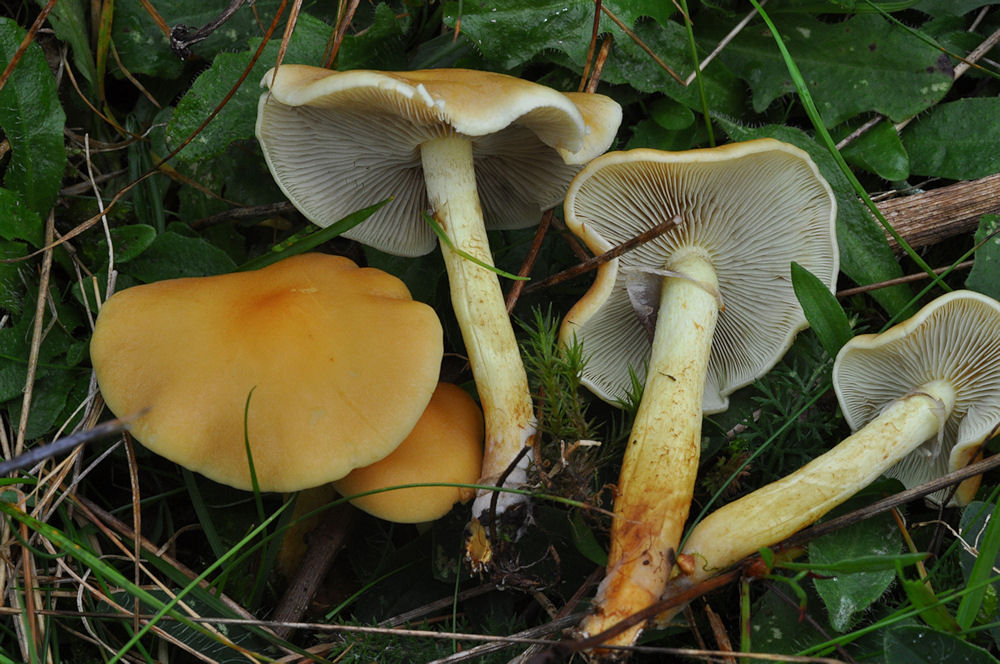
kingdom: Fungi
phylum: Basidiomycota
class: Agaricomycetes
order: Agaricales
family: Strophariaceae
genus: Hypholoma
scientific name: Hypholoma capnoides
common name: gran-svovlhat
